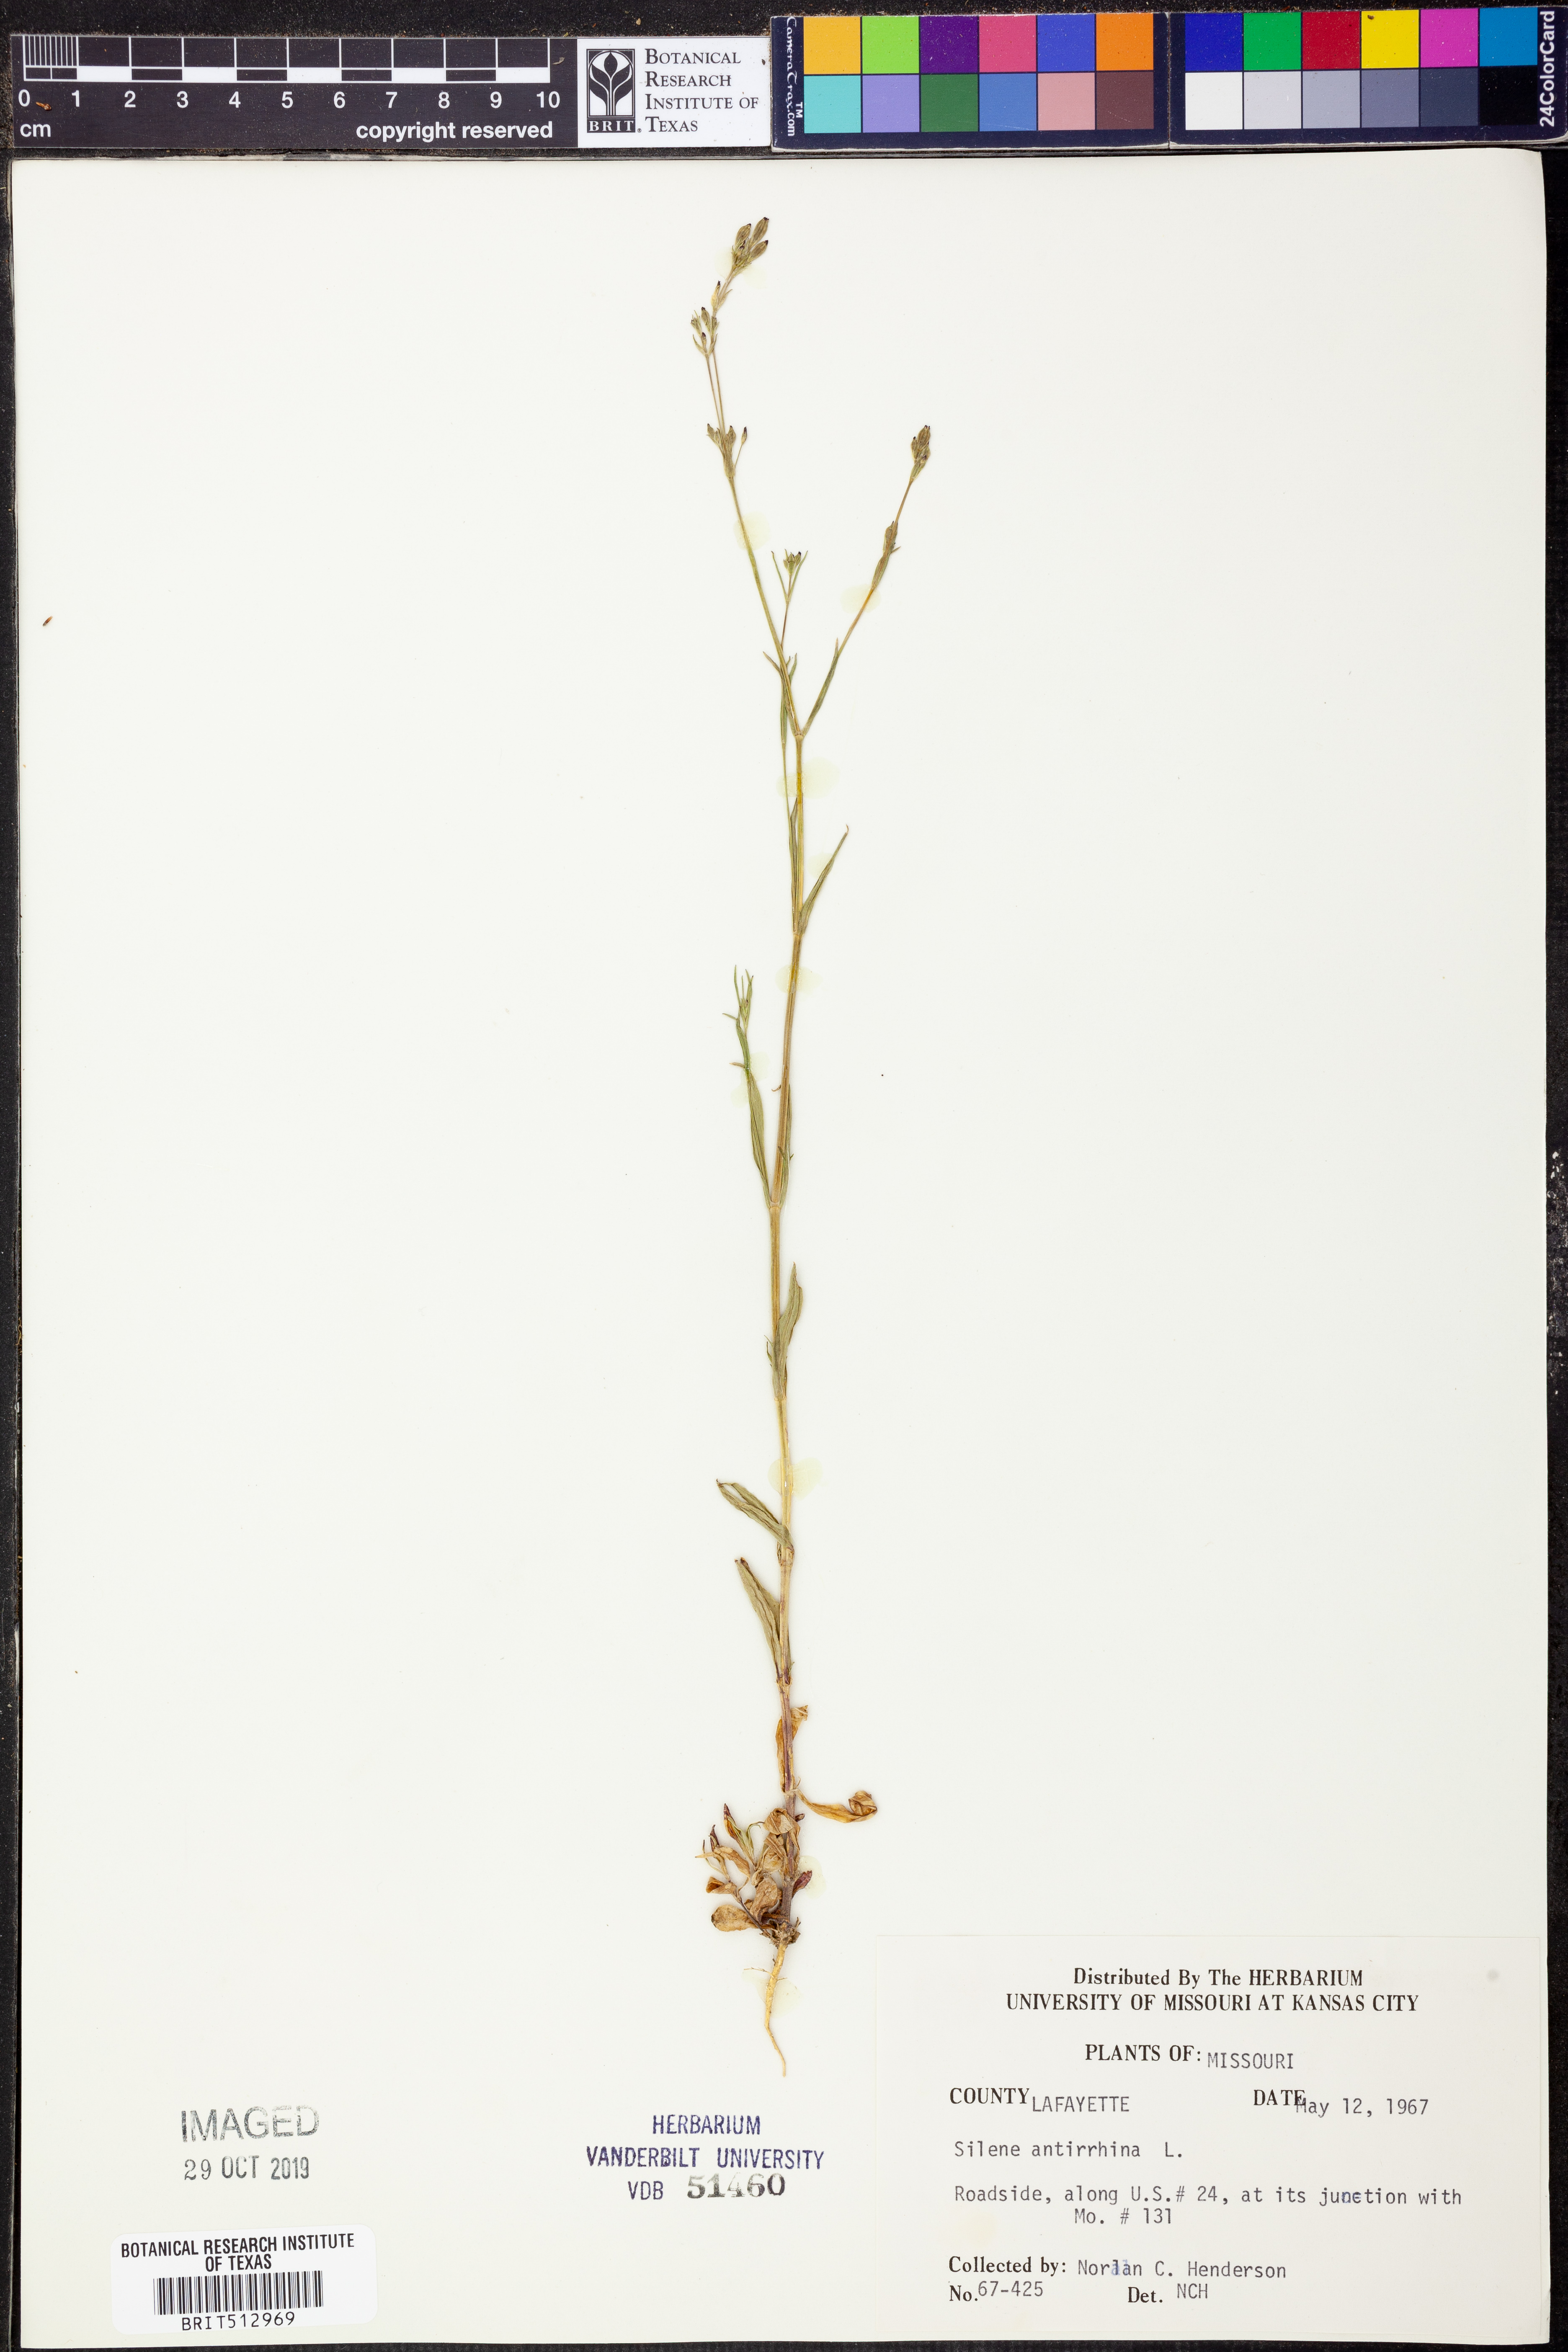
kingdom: Plantae
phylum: Tracheophyta
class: Magnoliopsida
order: Caryophyllales
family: Caryophyllaceae
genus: Silene
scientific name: Silene antirrhina
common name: Sleepy catchfly
